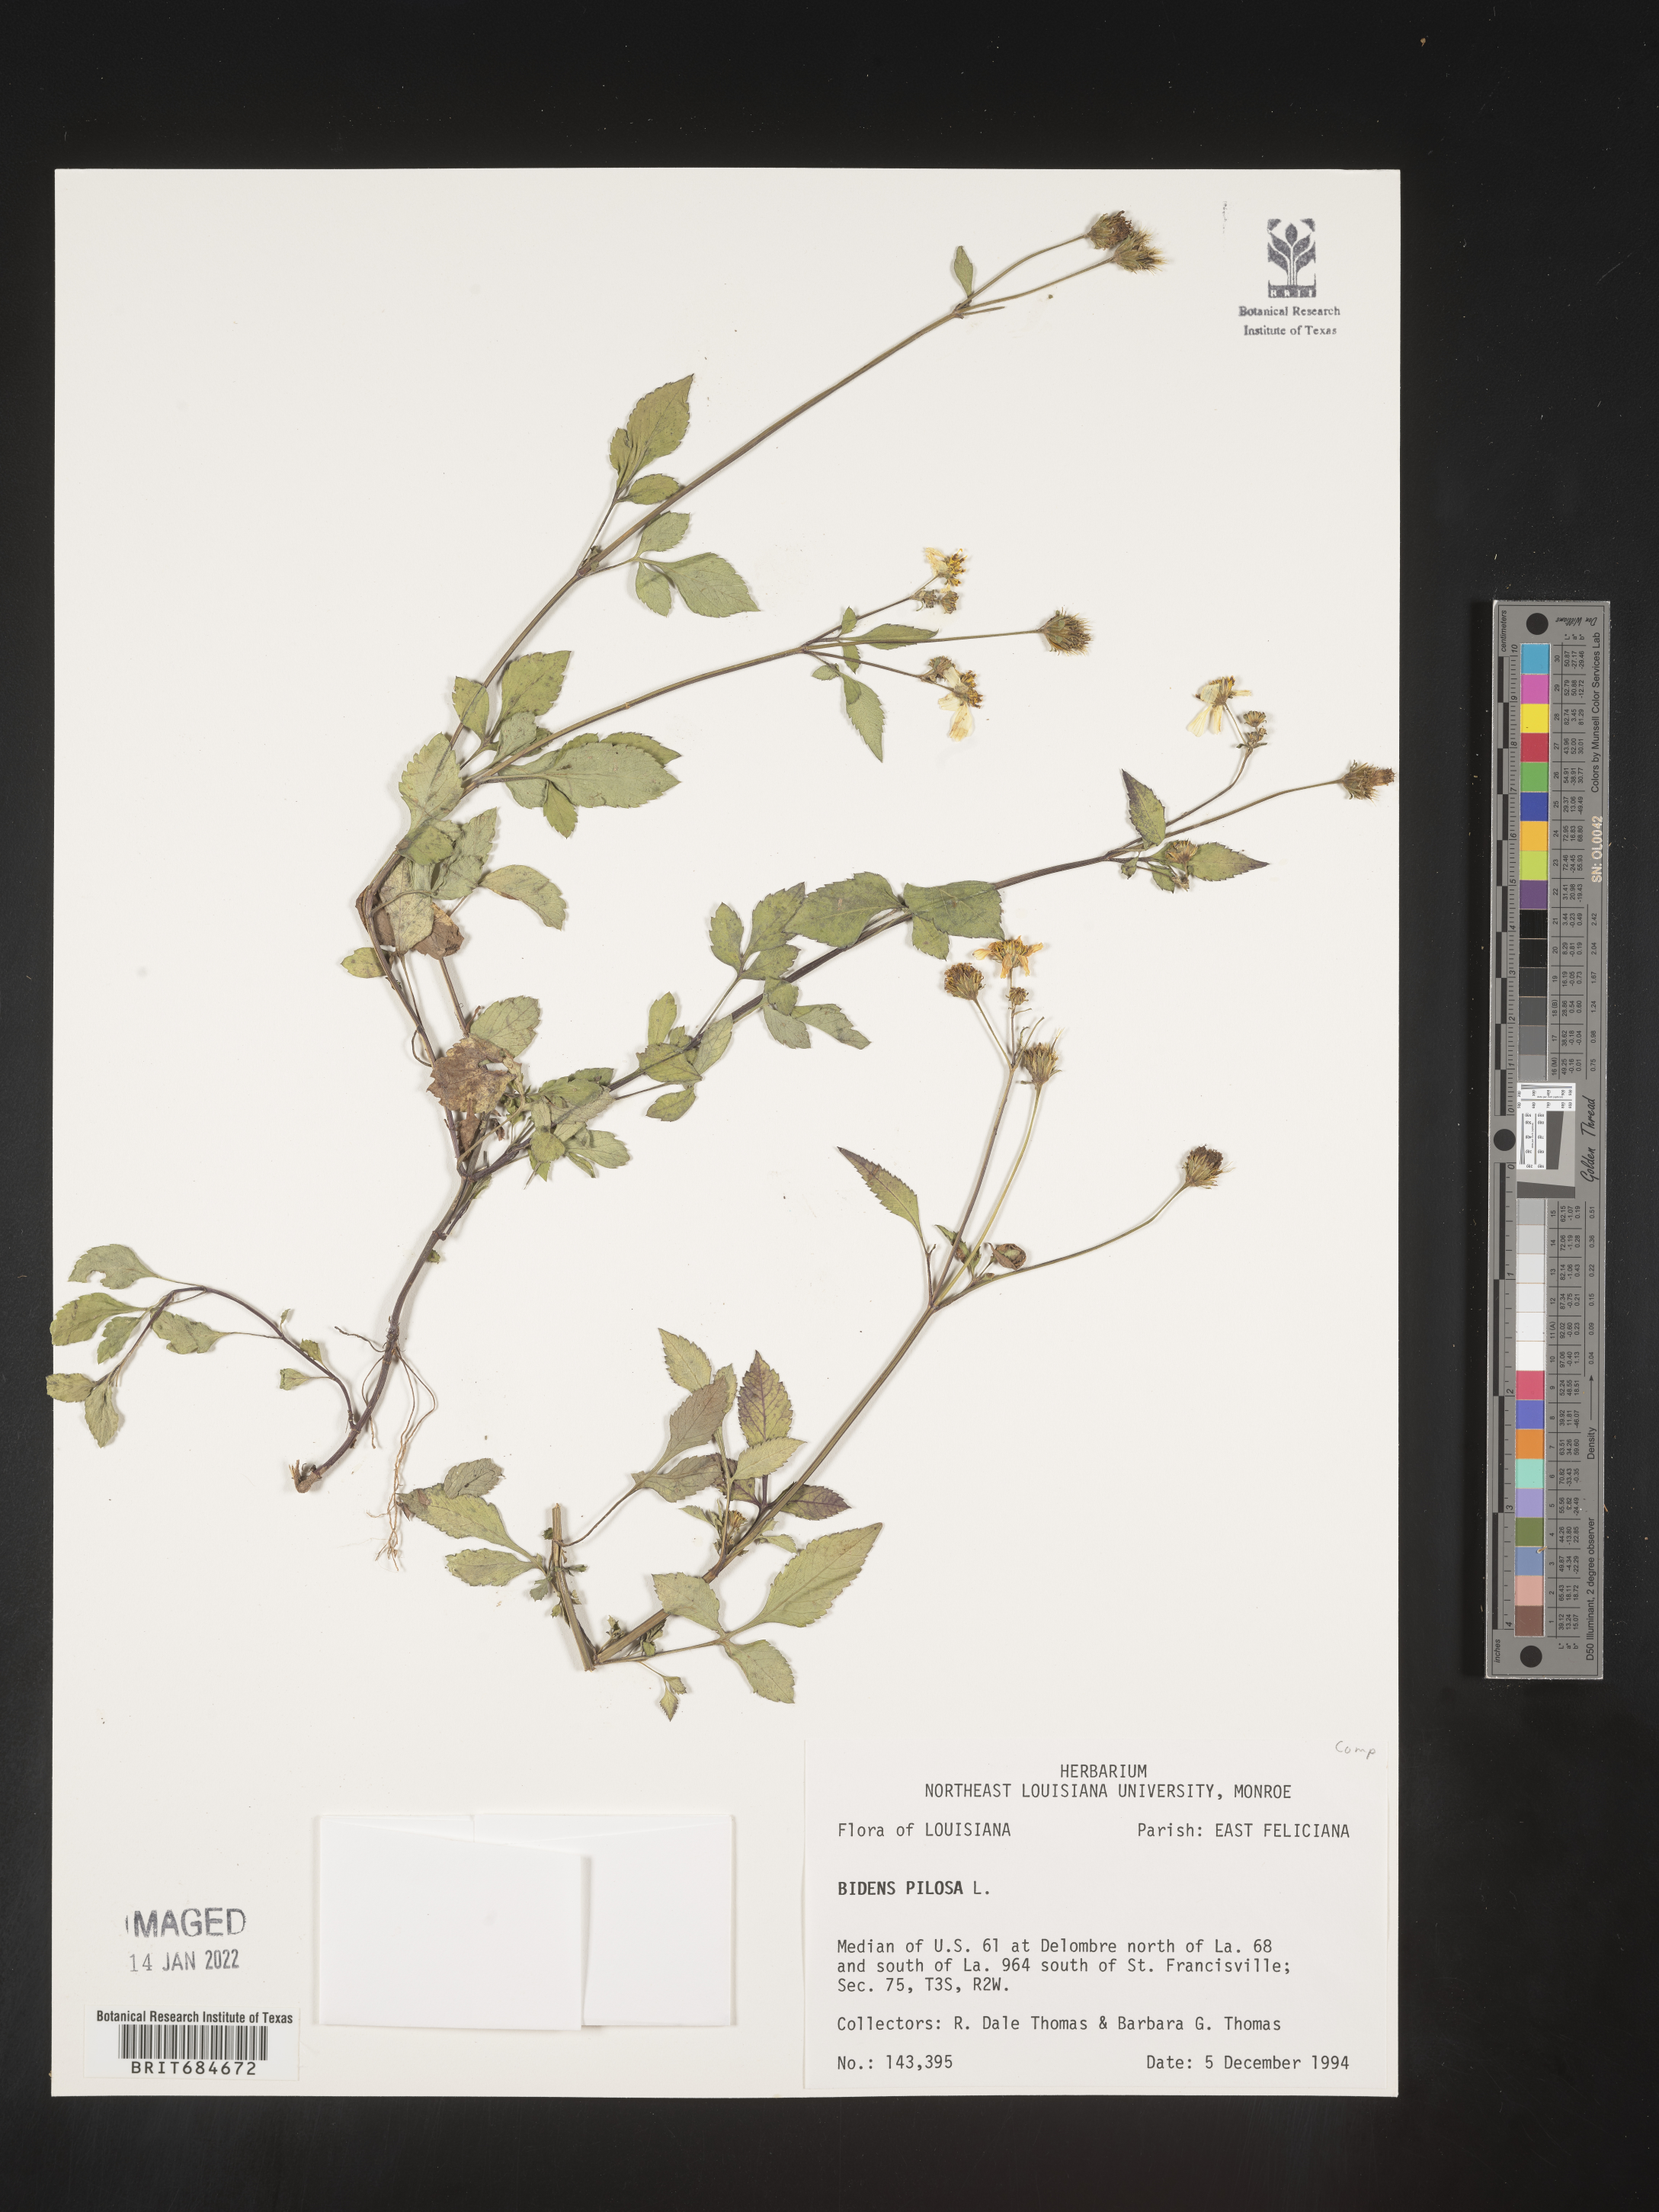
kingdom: Plantae
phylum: Tracheophyta
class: Magnoliopsida
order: Asterales
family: Asteraceae
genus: Bidens
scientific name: Bidens pilosa
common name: Black-jack
